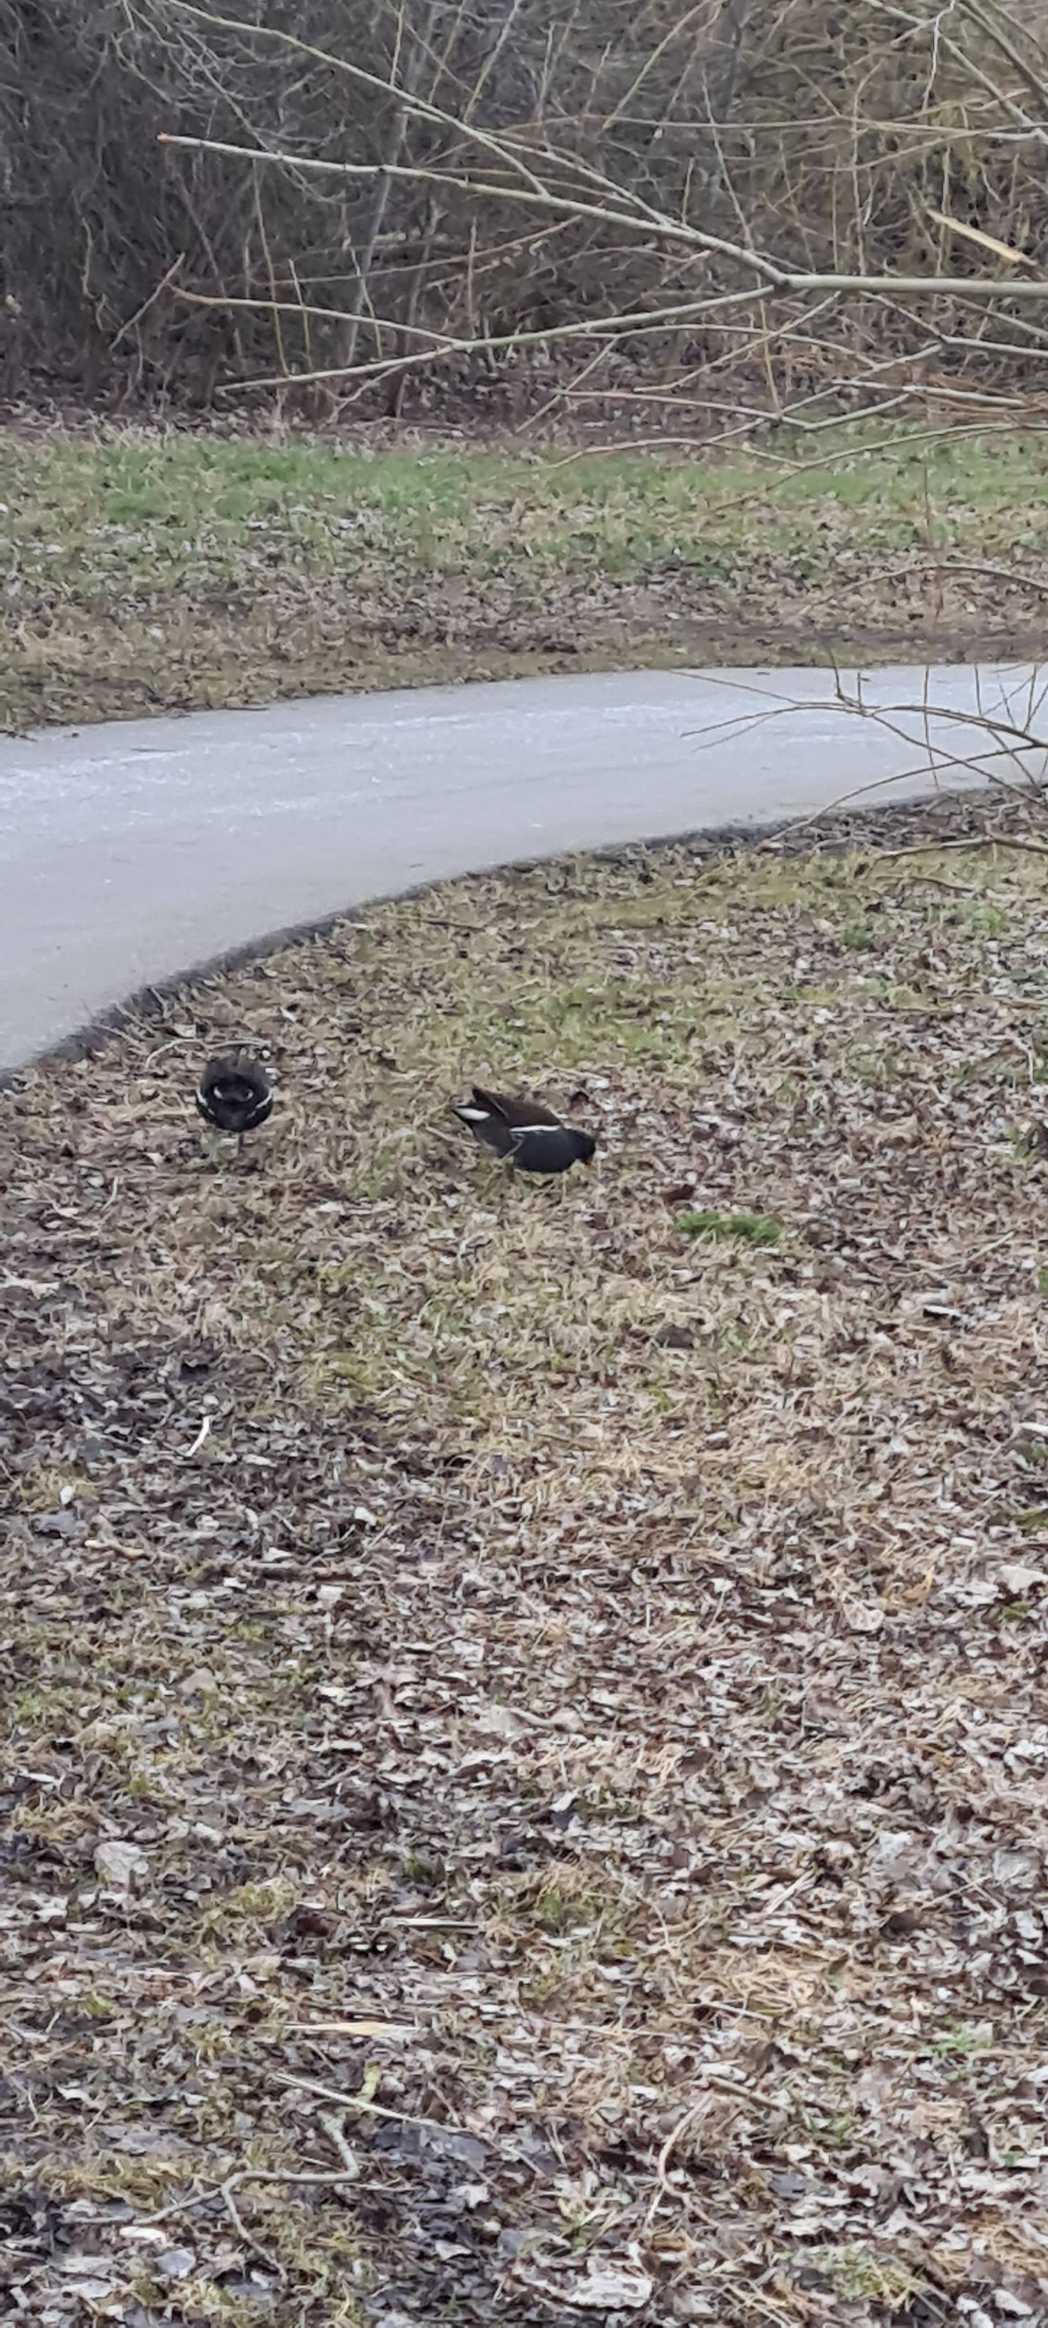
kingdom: Animalia
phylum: Chordata
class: Aves
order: Gruiformes
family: Rallidae
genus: Gallinula
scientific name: Gallinula chloropus
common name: Grønbenet rørhøne
